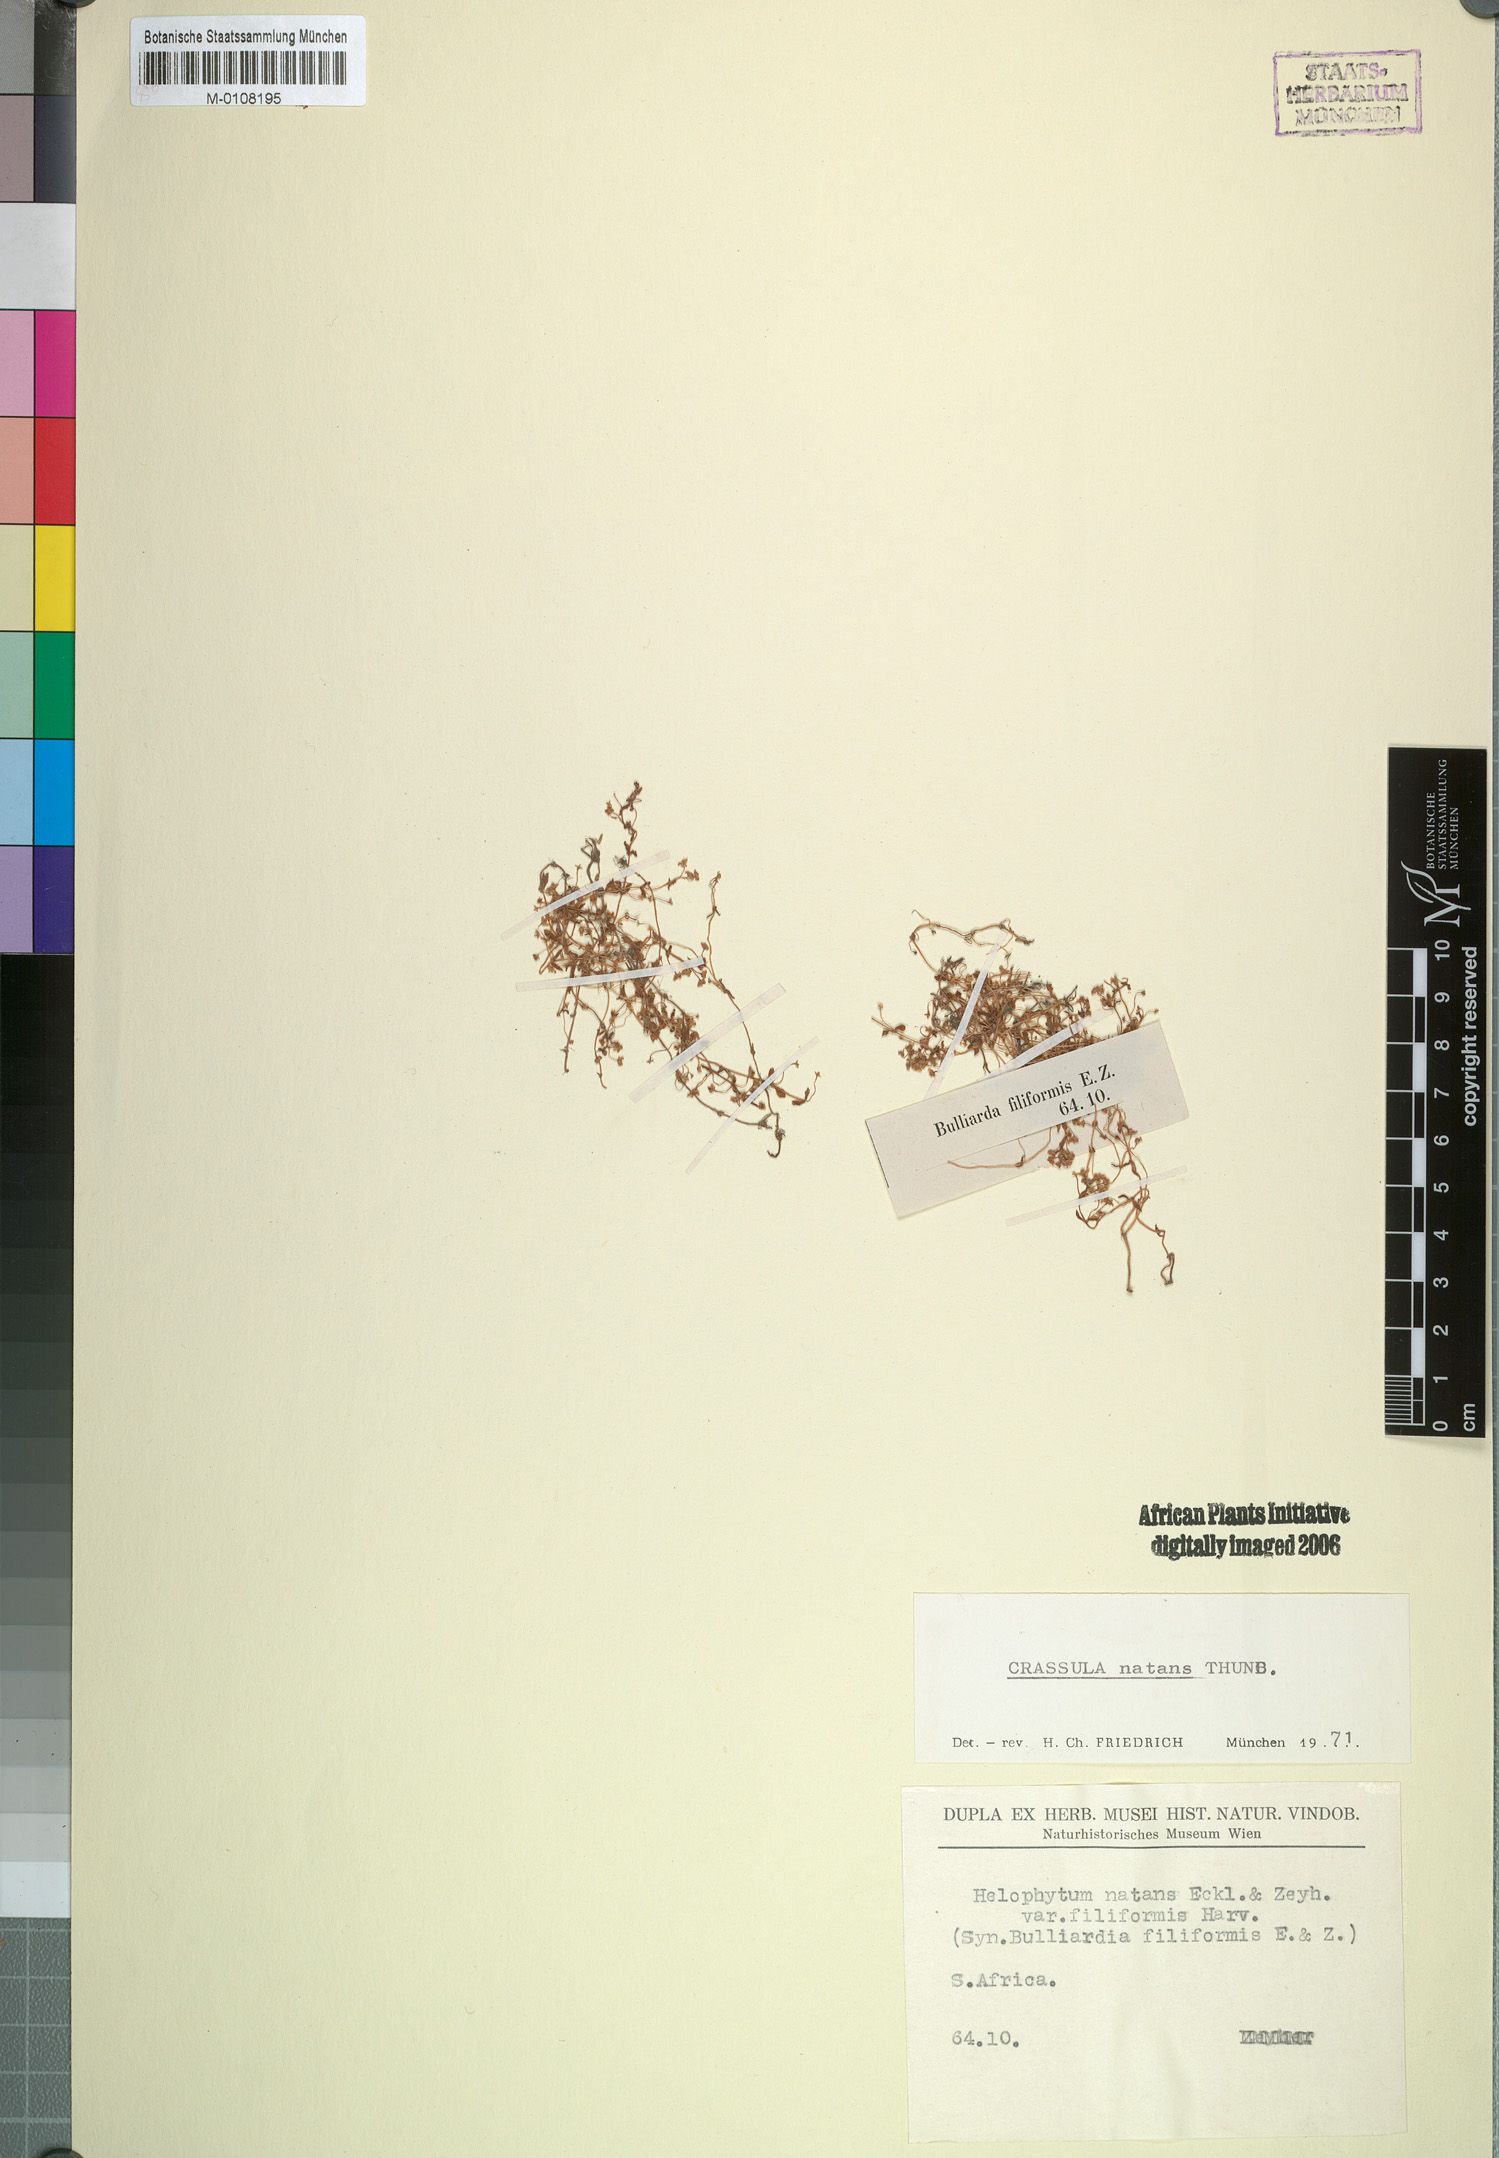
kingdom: Plantae
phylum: Tracheophyta
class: Magnoliopsida
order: Saxifragales
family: Crassulaceae
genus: Crassula
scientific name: Crassula natans
